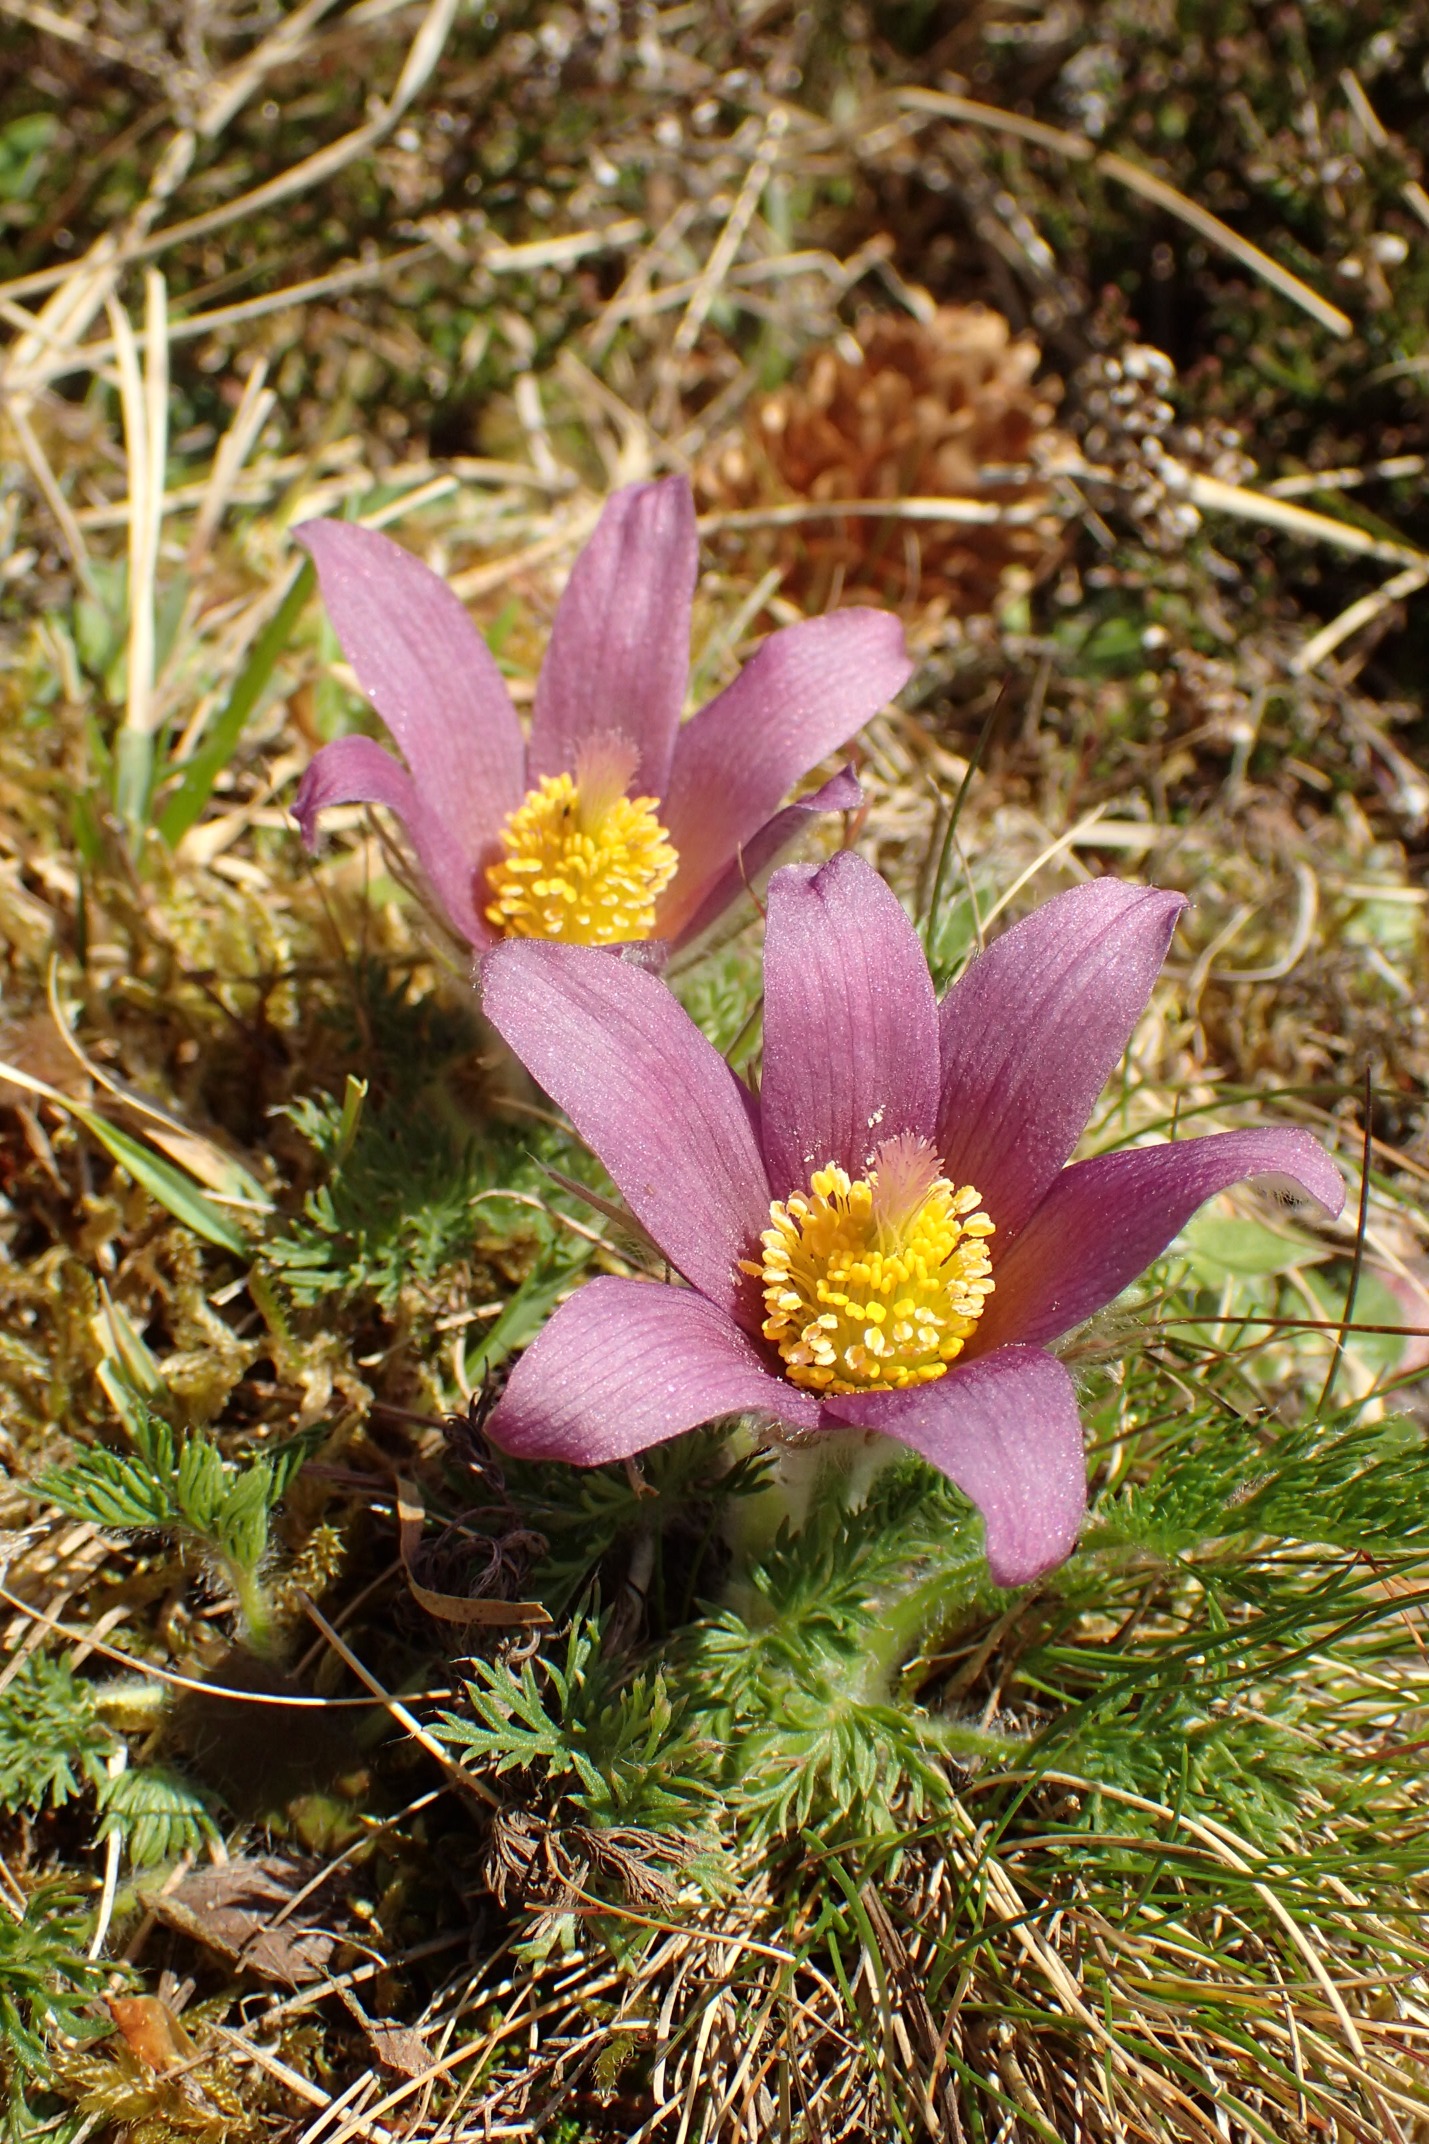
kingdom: Plantae
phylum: Tracheophyta
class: Magnoliopsida
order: Ranunculales
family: Ranunculaceae
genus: Pulsatilla
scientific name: Pulsatilla vulgaris
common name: Opret kobjælde
